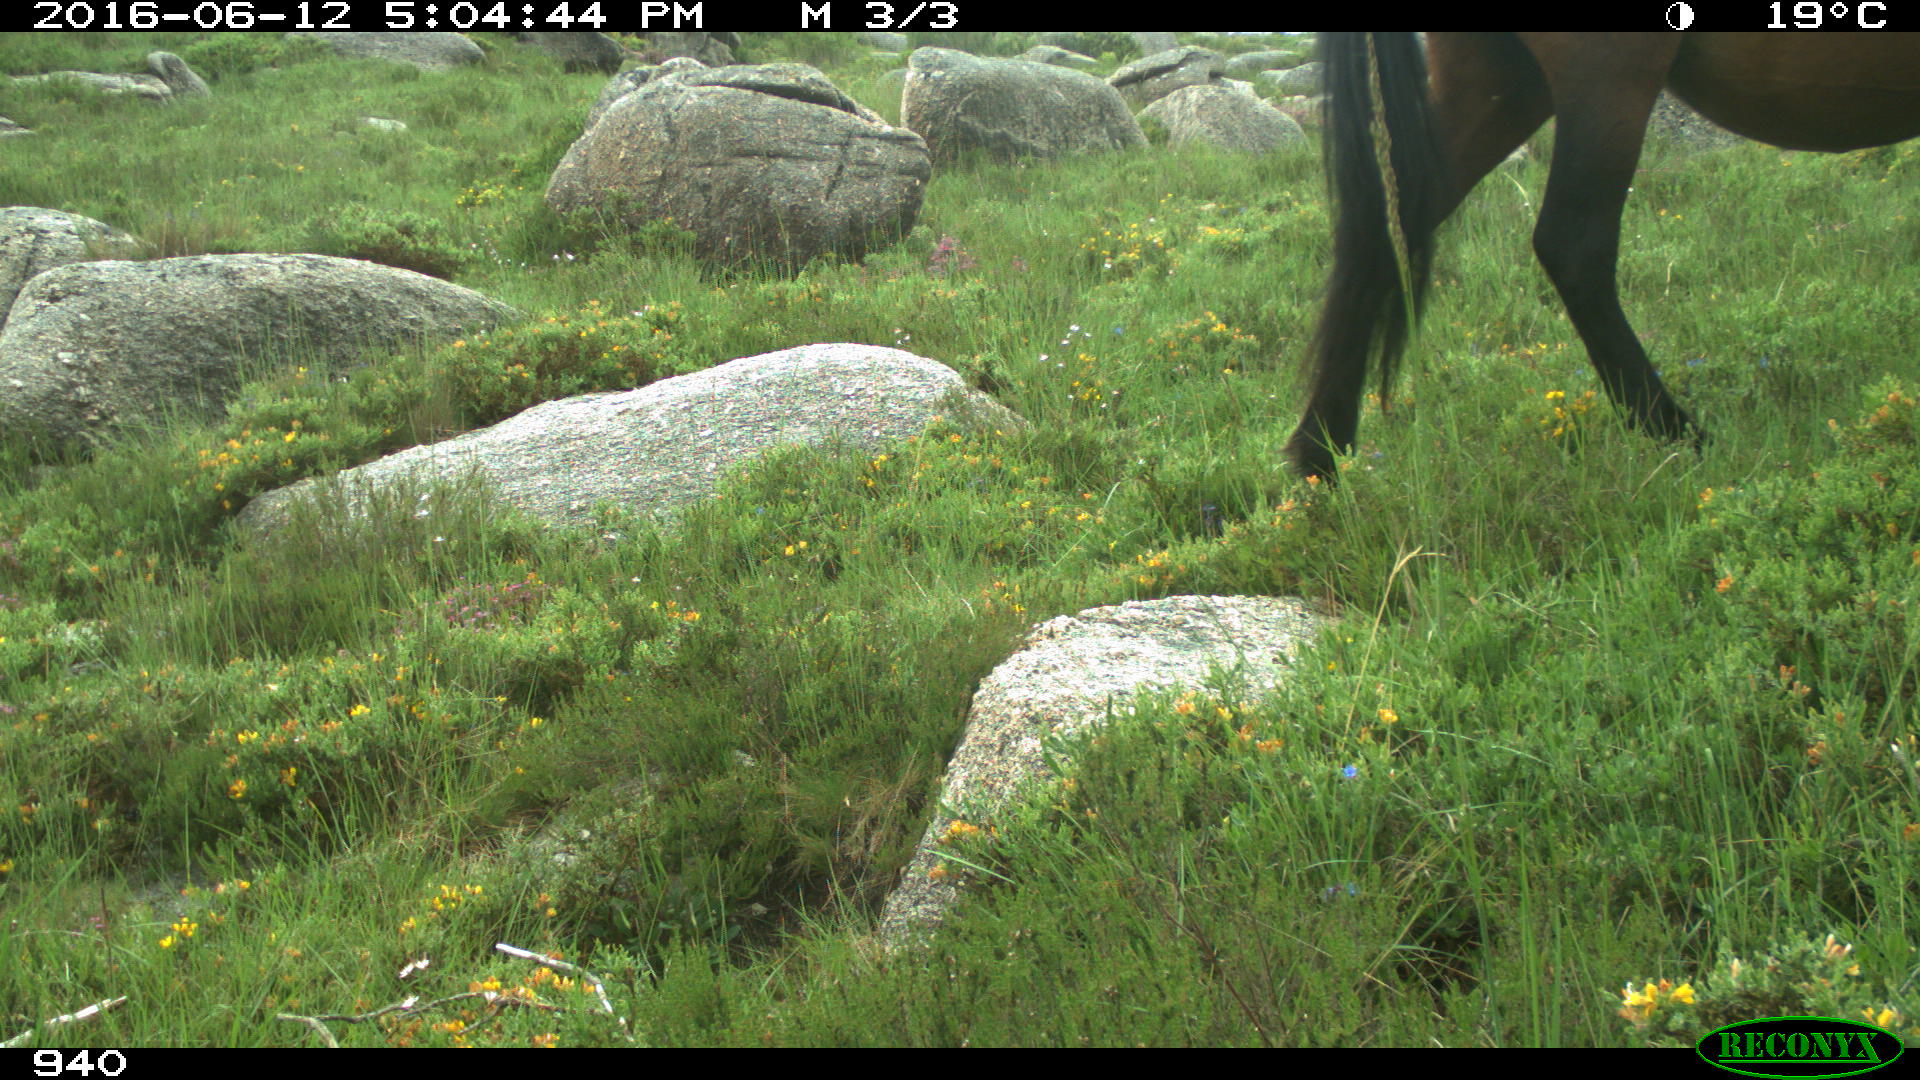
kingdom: Animalia
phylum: Chordata
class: Mammalia
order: Perissodactyla
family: Equidae
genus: Equus
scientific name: Equus caballus
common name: Horse
